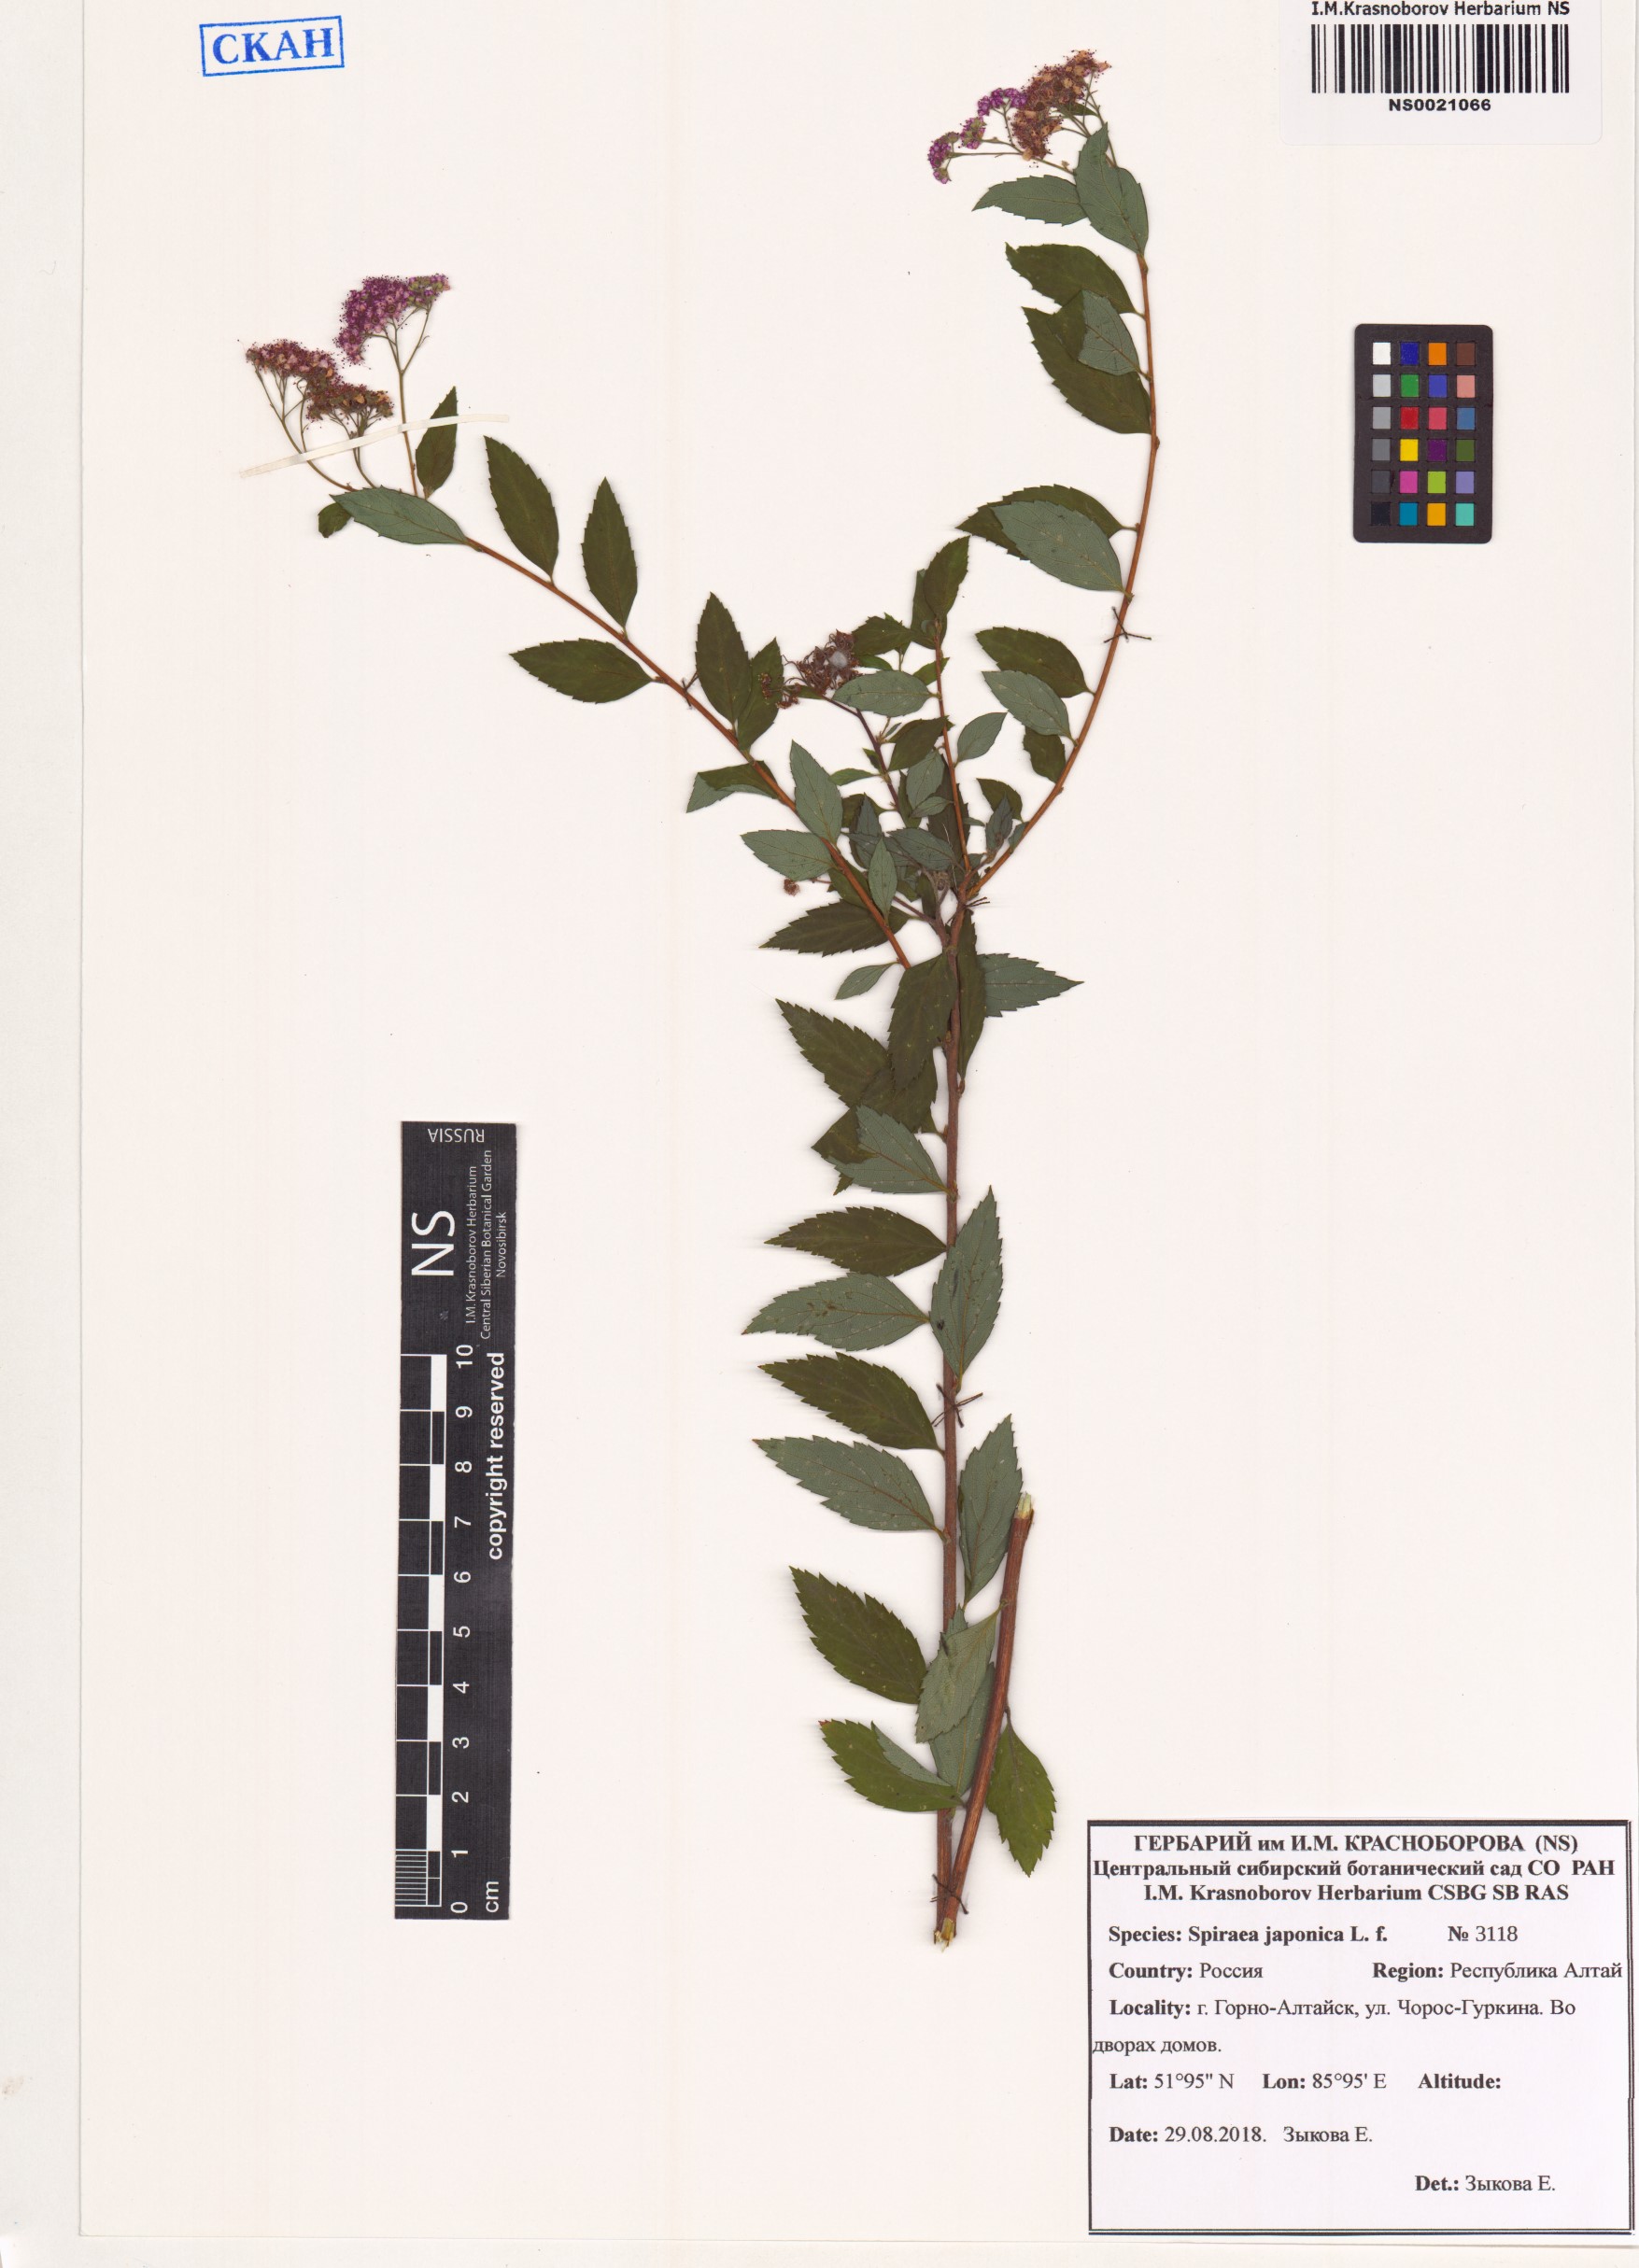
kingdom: Plantae
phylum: Tracheophyta
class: Magnoliopsida
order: Rosales
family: Rosaceae
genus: Spiraea
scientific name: Spiraea japonica
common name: Japanese spiraea
